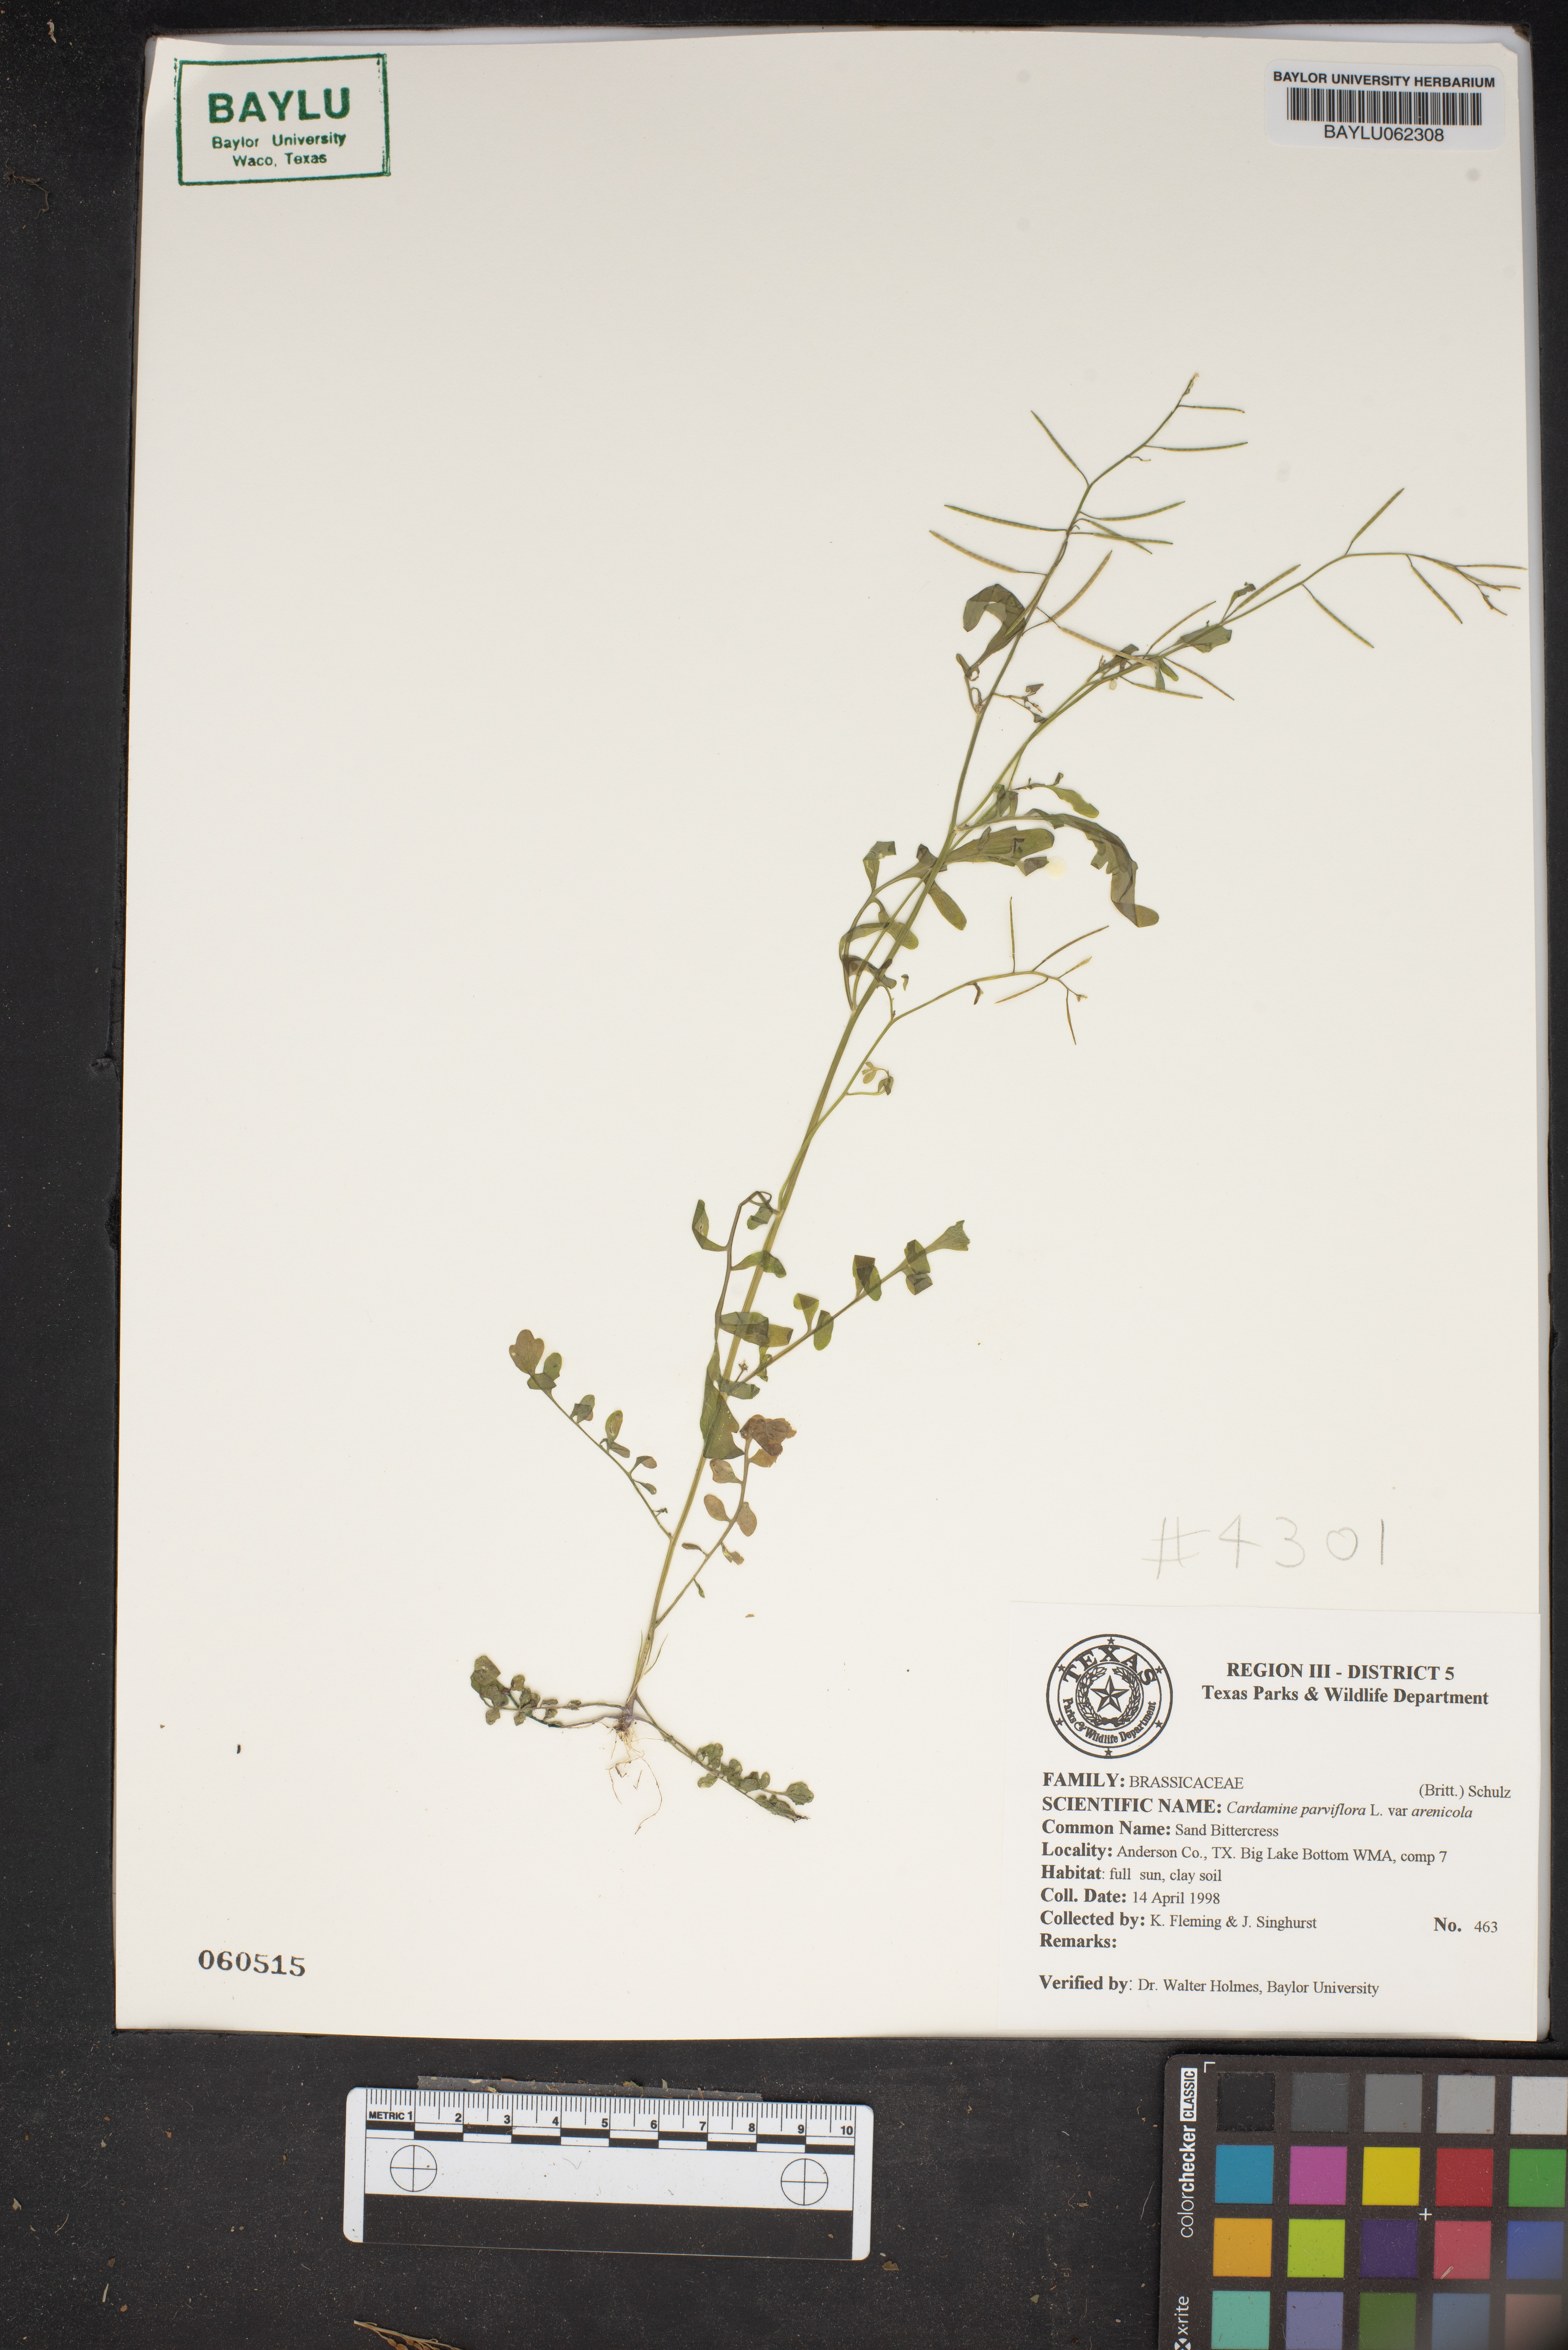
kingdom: Plantae
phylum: Tracheophyta
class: Magnoliopsida
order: Brassicales
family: Brassicaceae
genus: Cardamine
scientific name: Cardamine parviflora
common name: Sand bittercress
